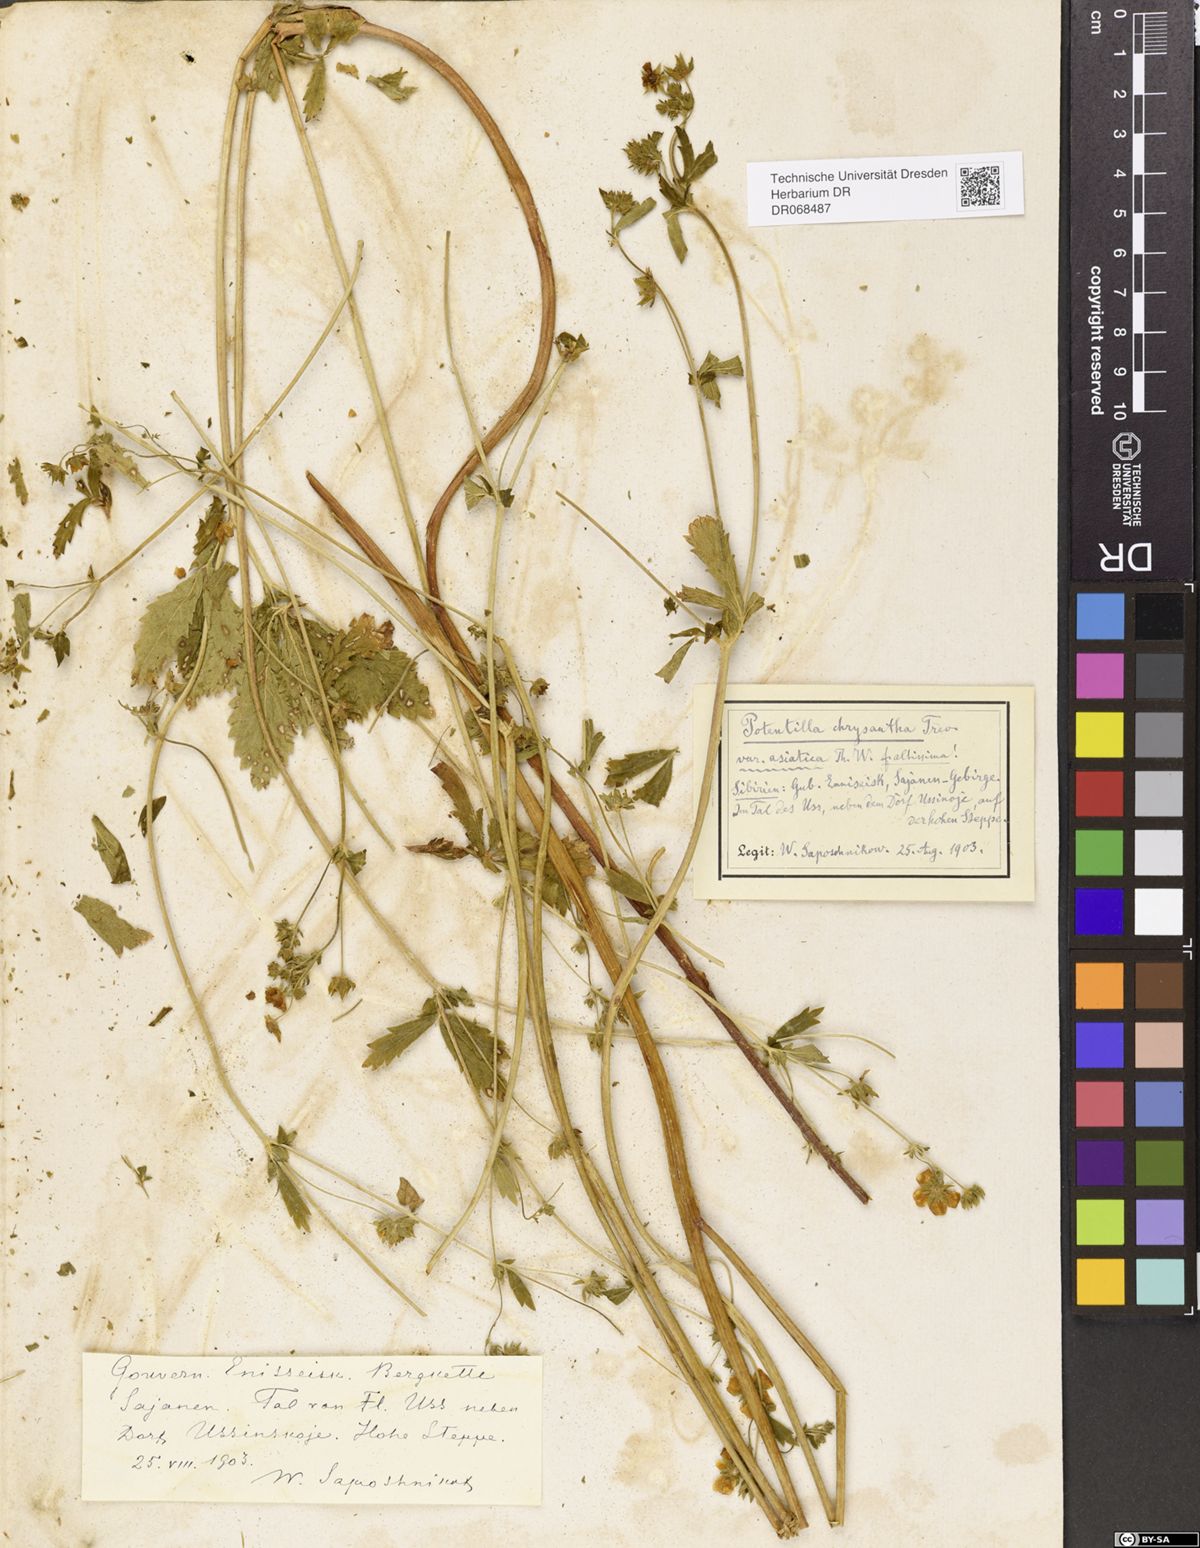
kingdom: Plantae
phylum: Tracheophyta
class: Magnoliopsida
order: Rosales
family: Rosaceae
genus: Potentilla
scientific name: Potentilla asiatica
